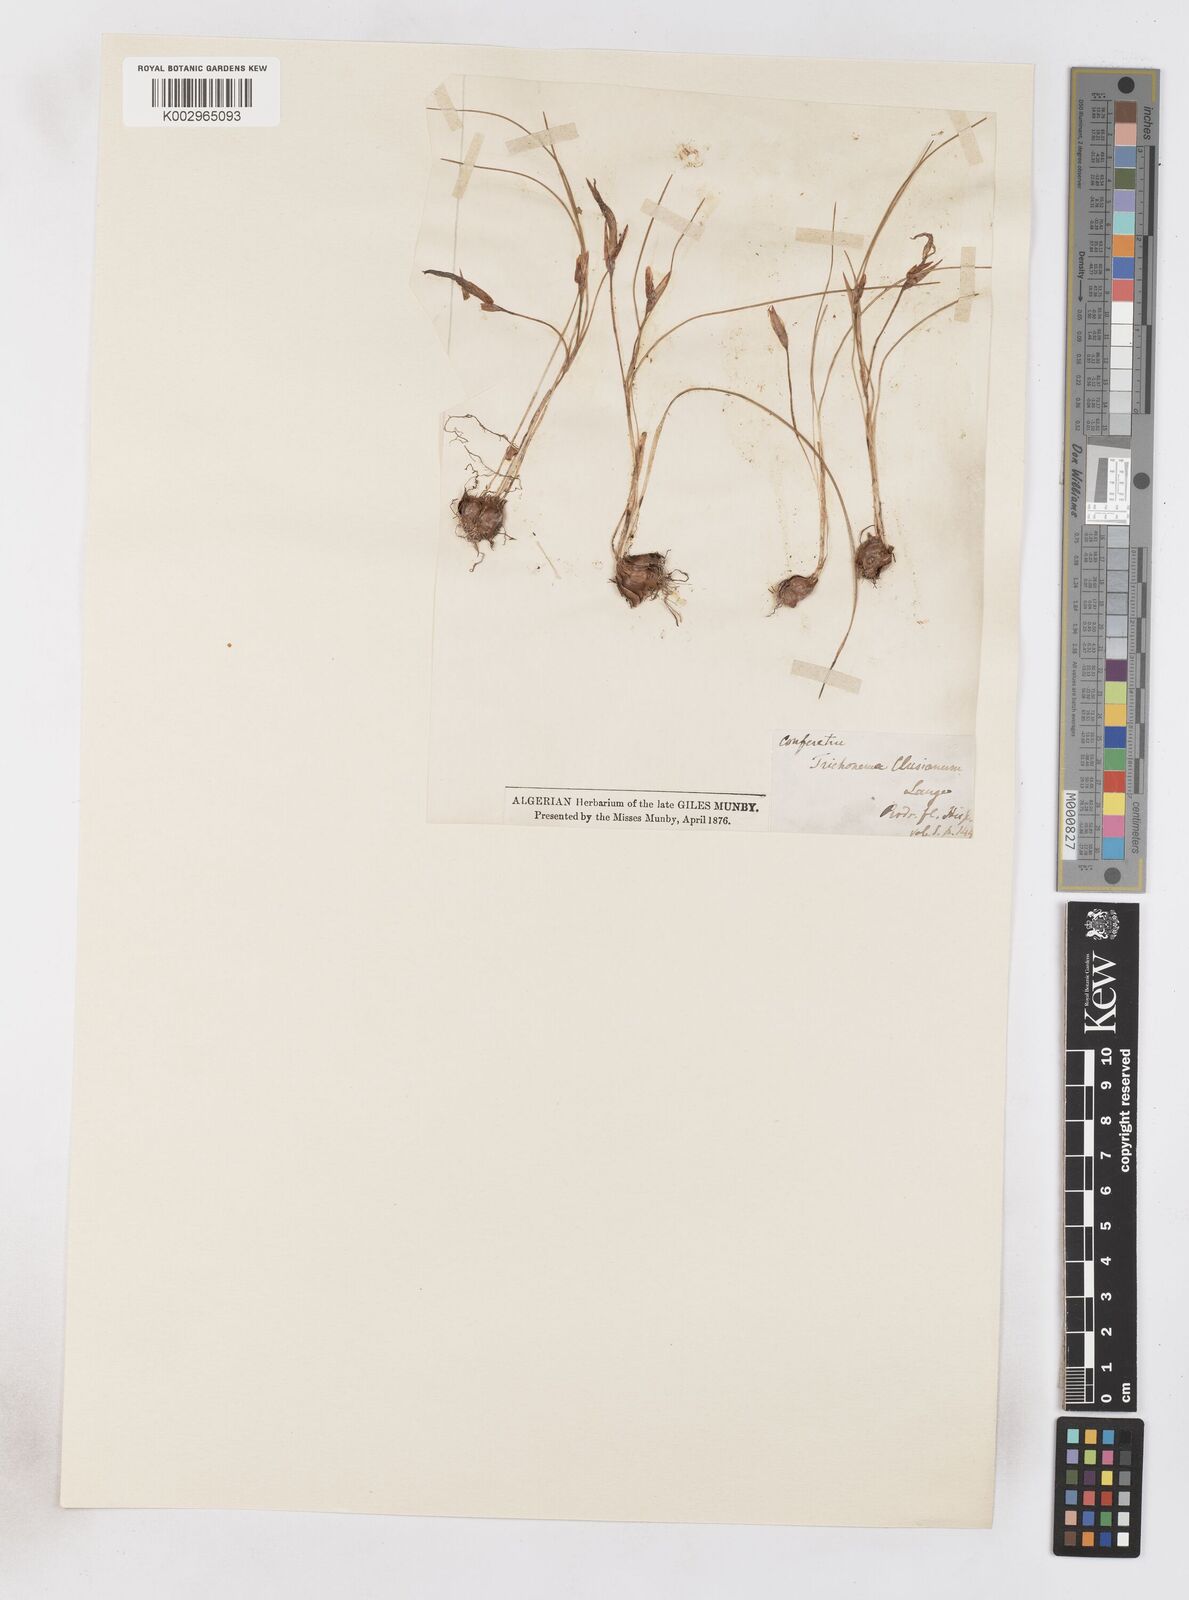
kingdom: Plantae
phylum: Tracheophyta
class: Liliopsida
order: Asparagales
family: Iridaceae
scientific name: Iridaceae
